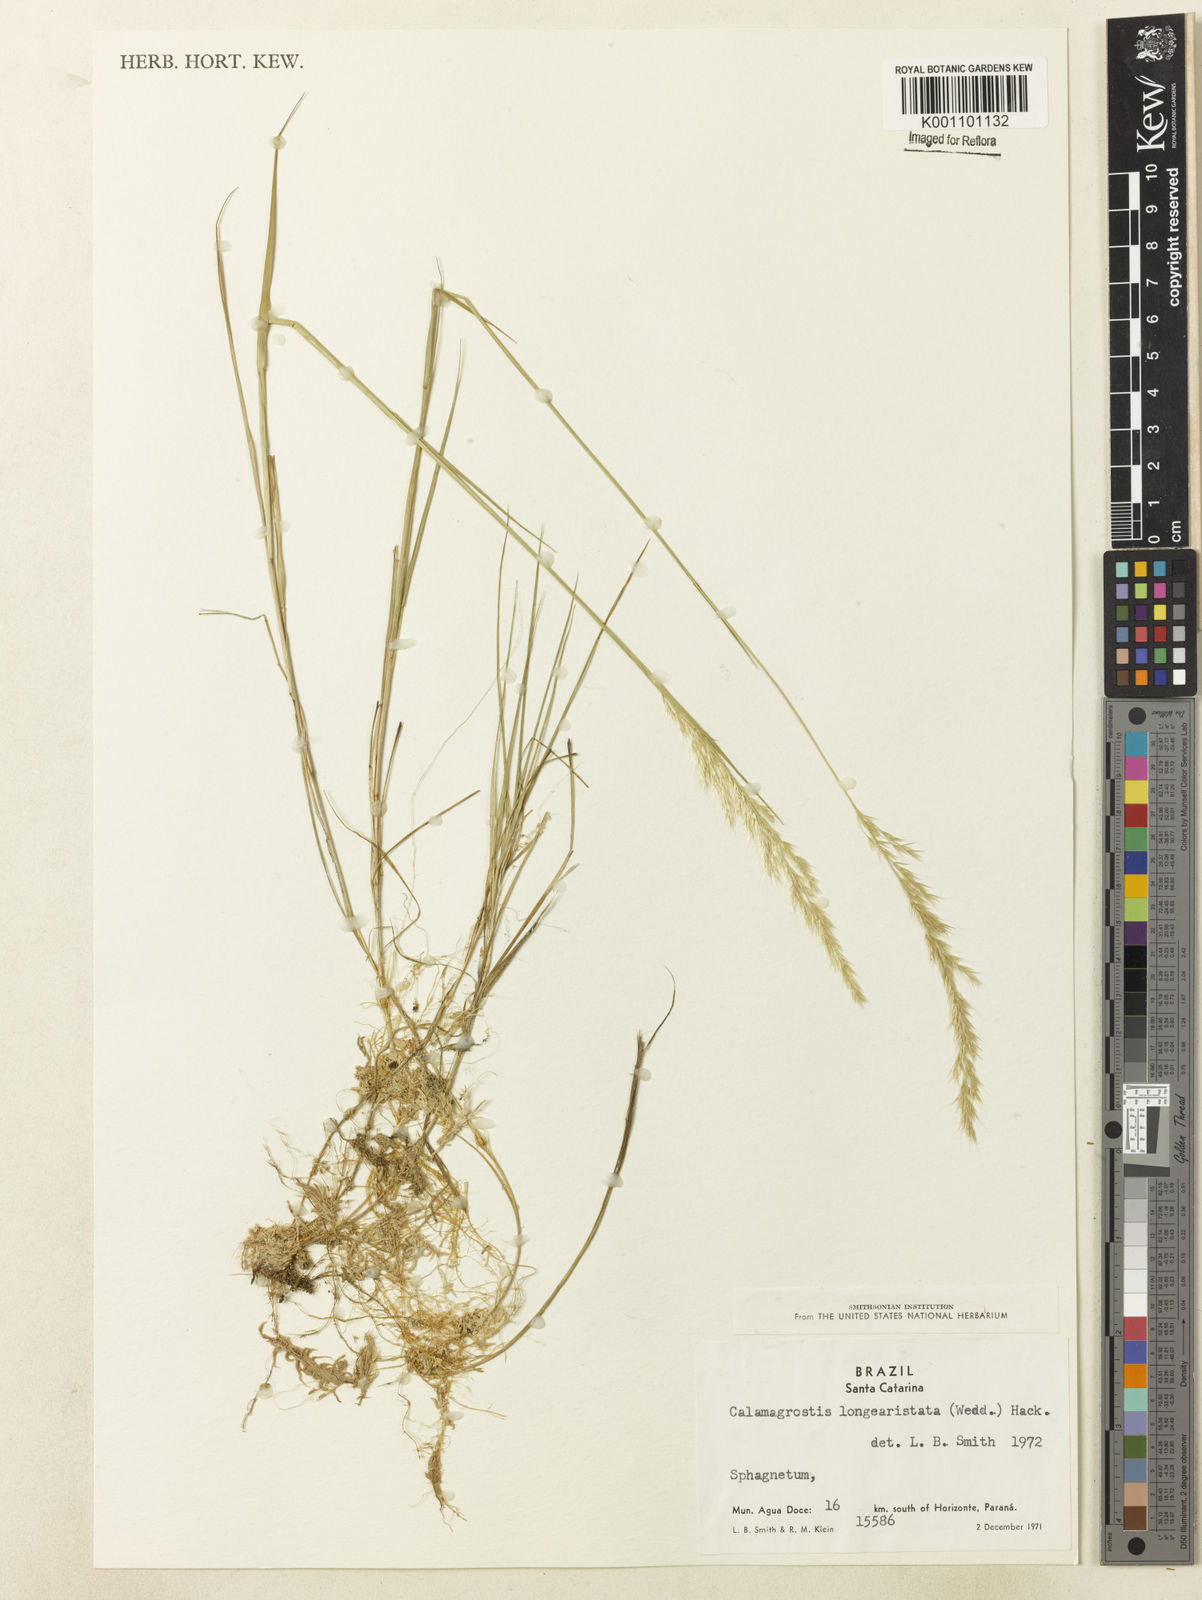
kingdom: Plantae
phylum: Tracheophyta
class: Liliopsida
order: Poales
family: Poaceae
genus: Cinnagrostis
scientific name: Cinnagrostis rupestris
